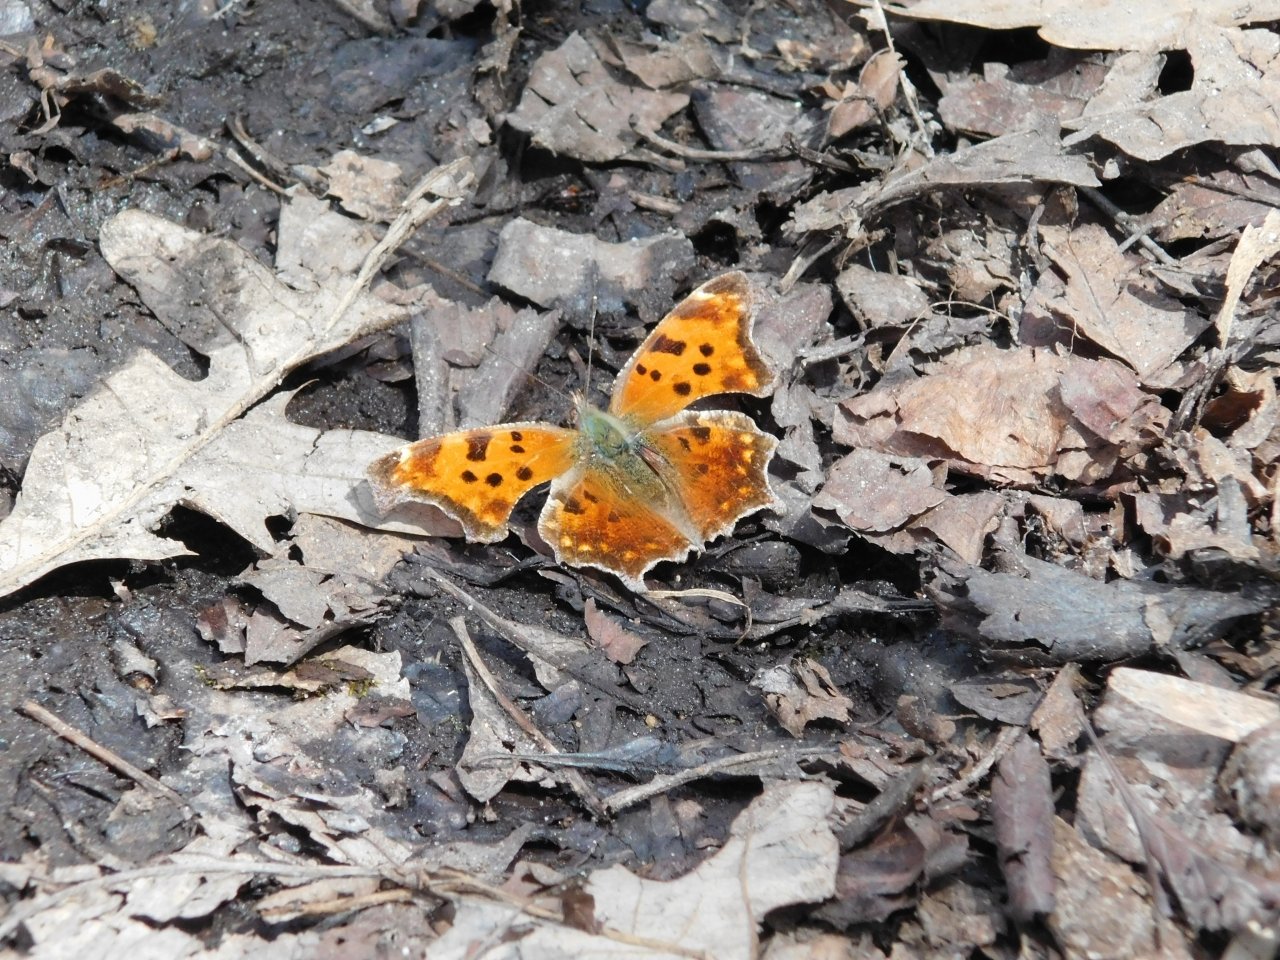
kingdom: Animalia
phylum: Arthropoda
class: Insecta
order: Lepidoptera
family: Nymphalidae
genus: Polygonia
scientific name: Polygonia comma
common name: Eastern Comma
